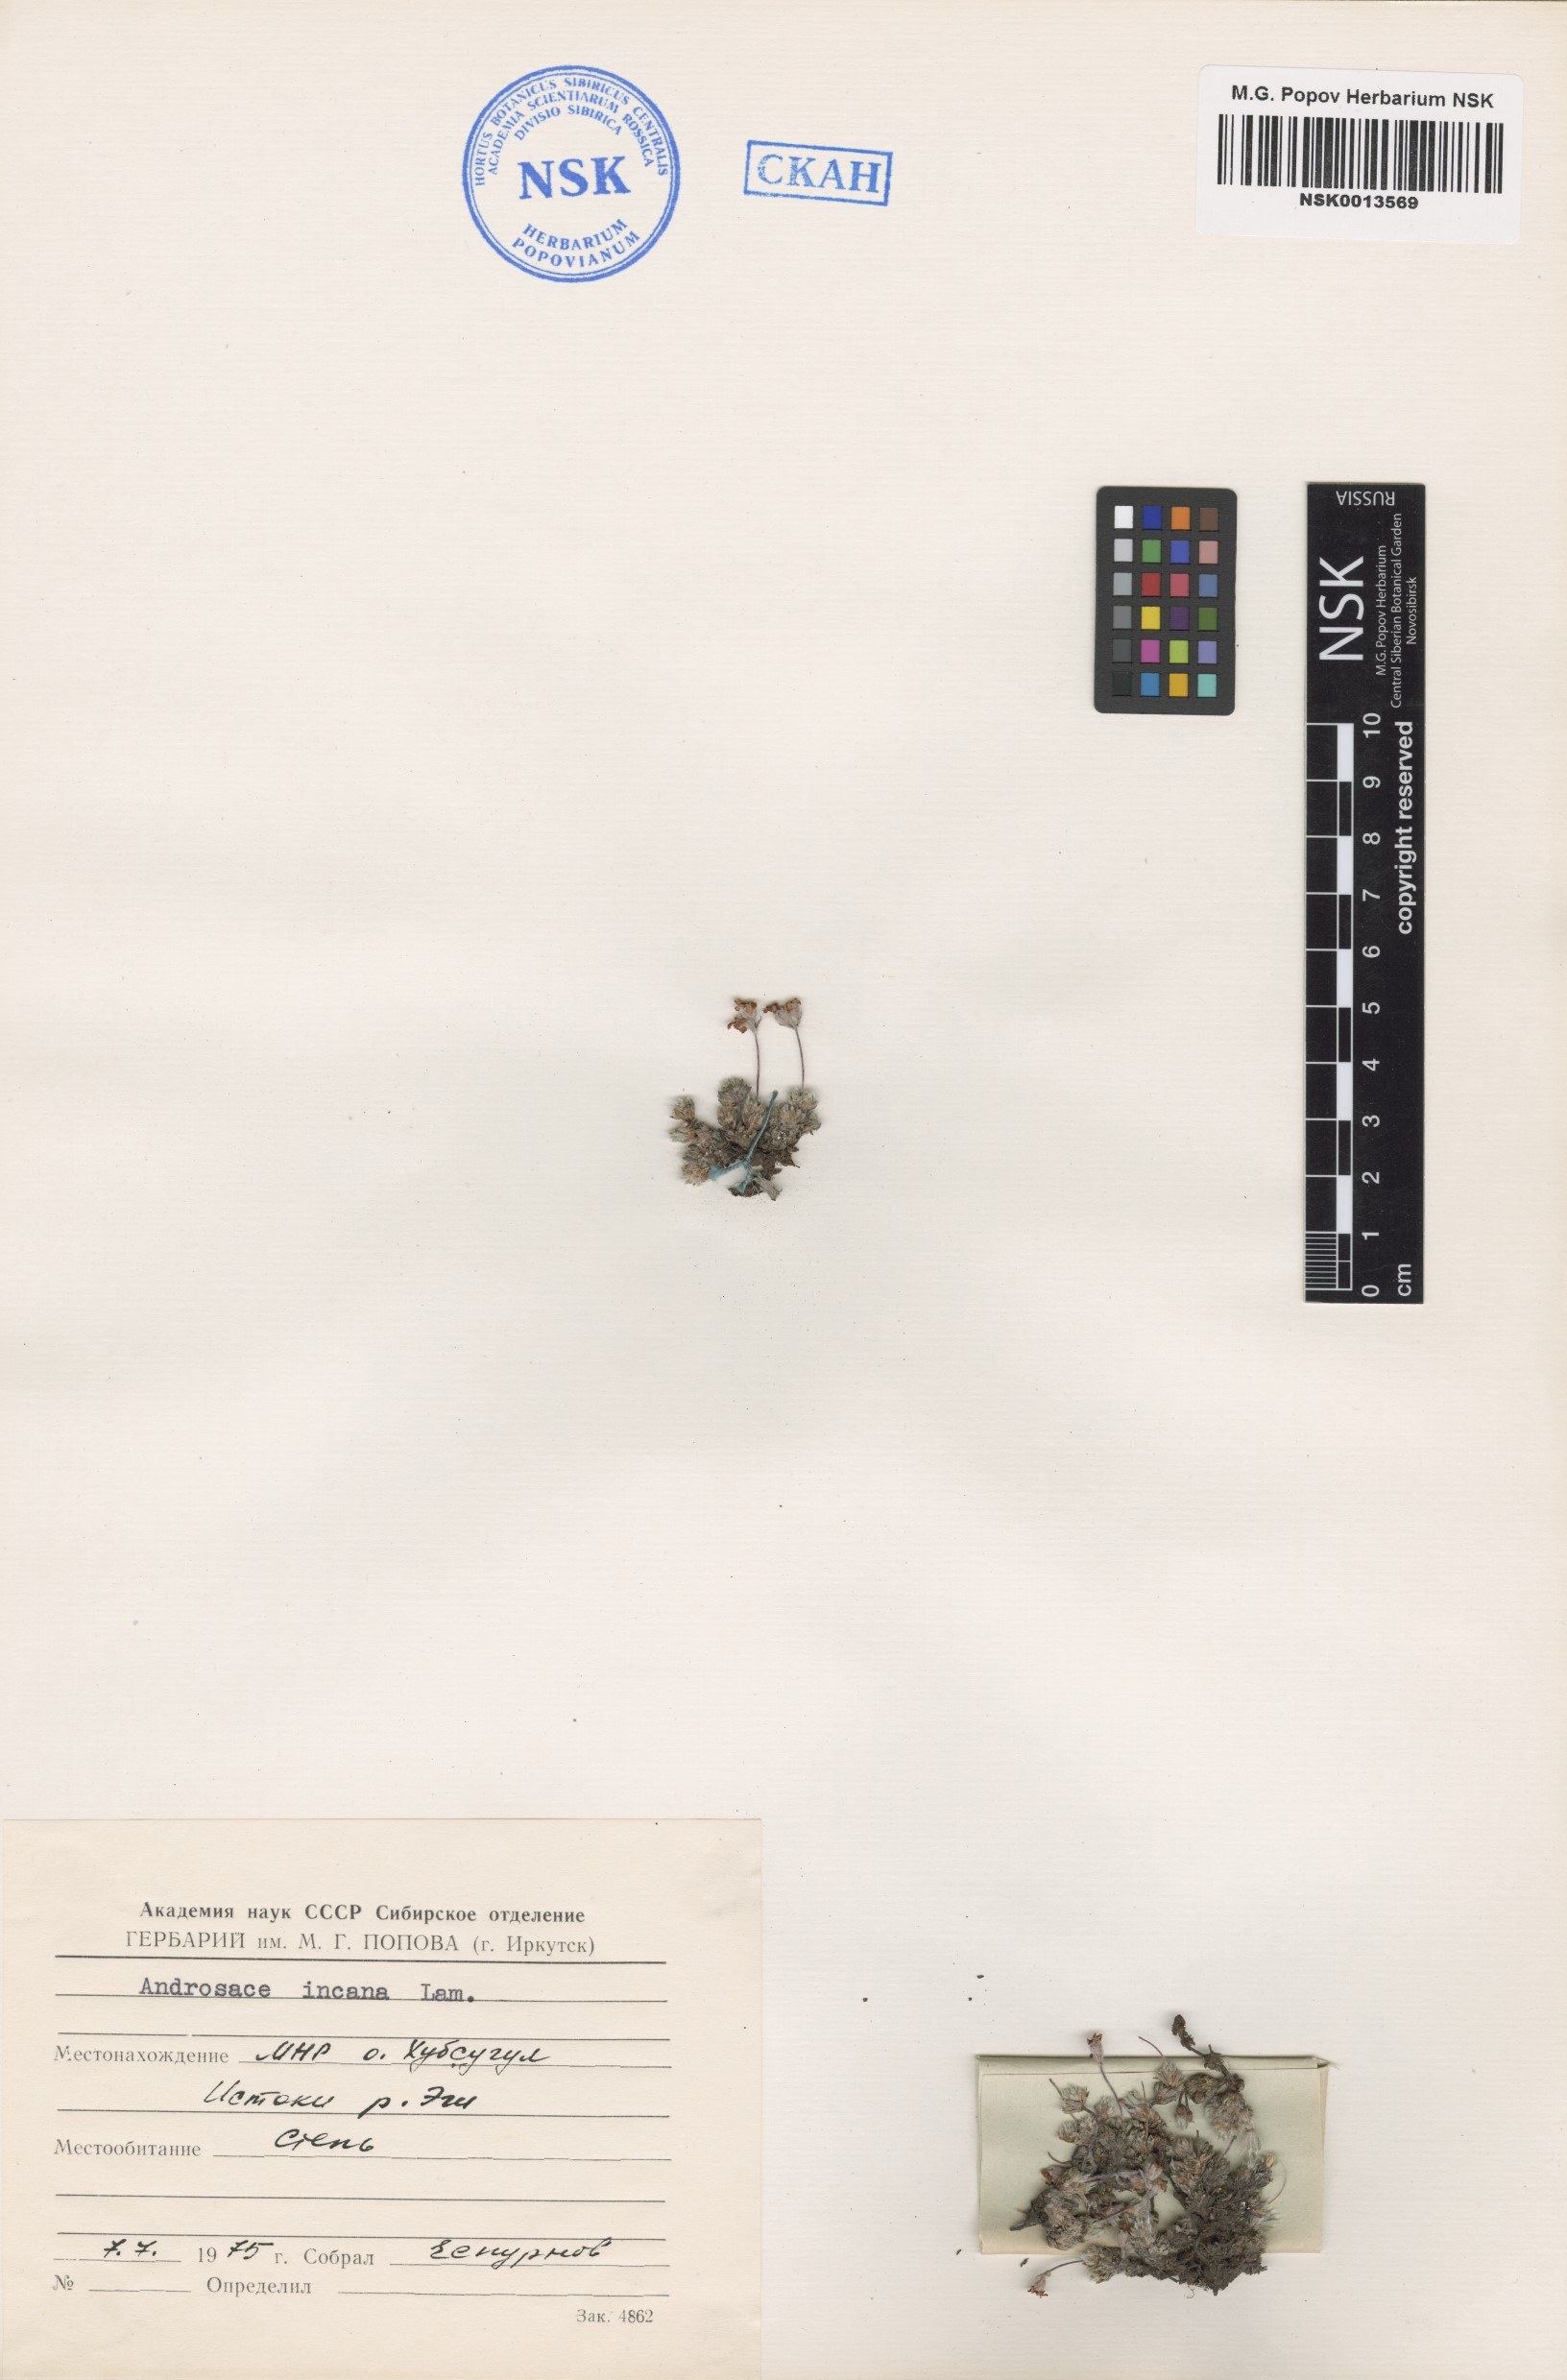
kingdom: Plantae
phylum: Tracheophyta
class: Magnoliopsida
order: Ericales
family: Primulaceae
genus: Androsace
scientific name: Androsace incana
